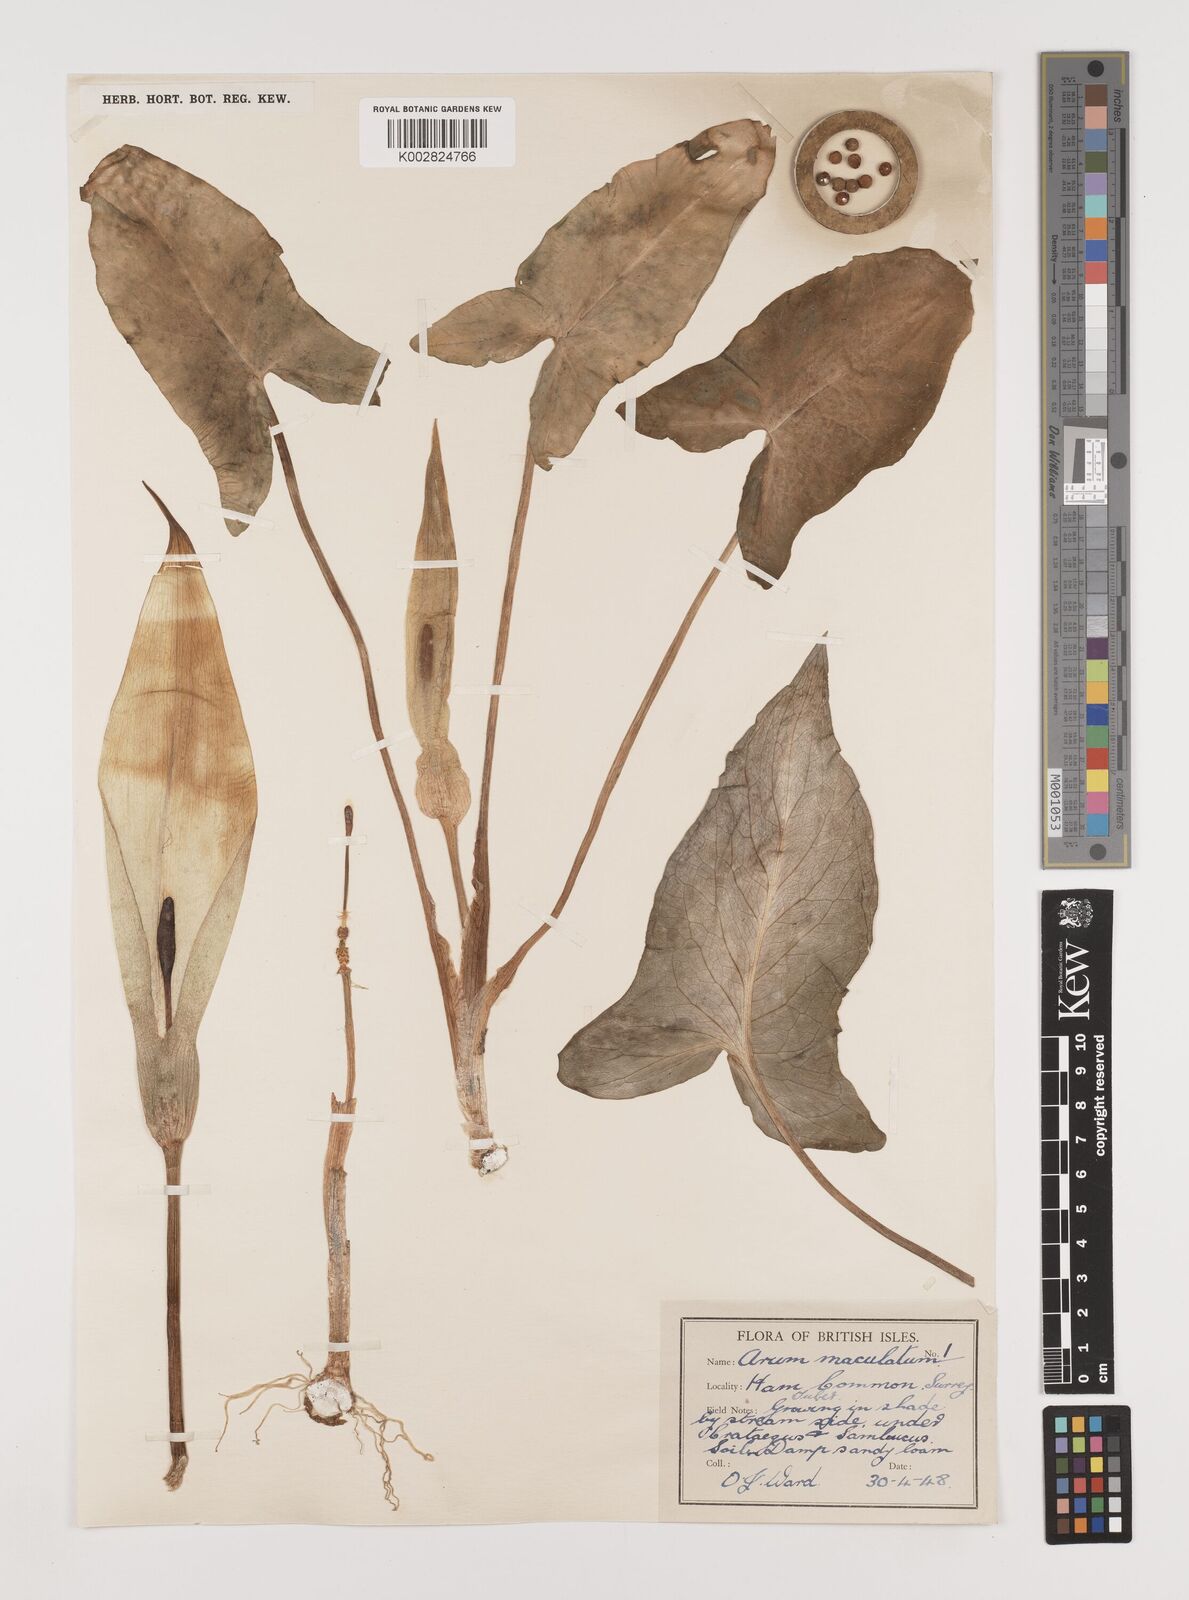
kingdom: Plantae
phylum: Tracheophyta
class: Liliopsida
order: Alismatales
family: Araceae
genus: Arum
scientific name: Arum maculatum
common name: Lords-and-ladies
